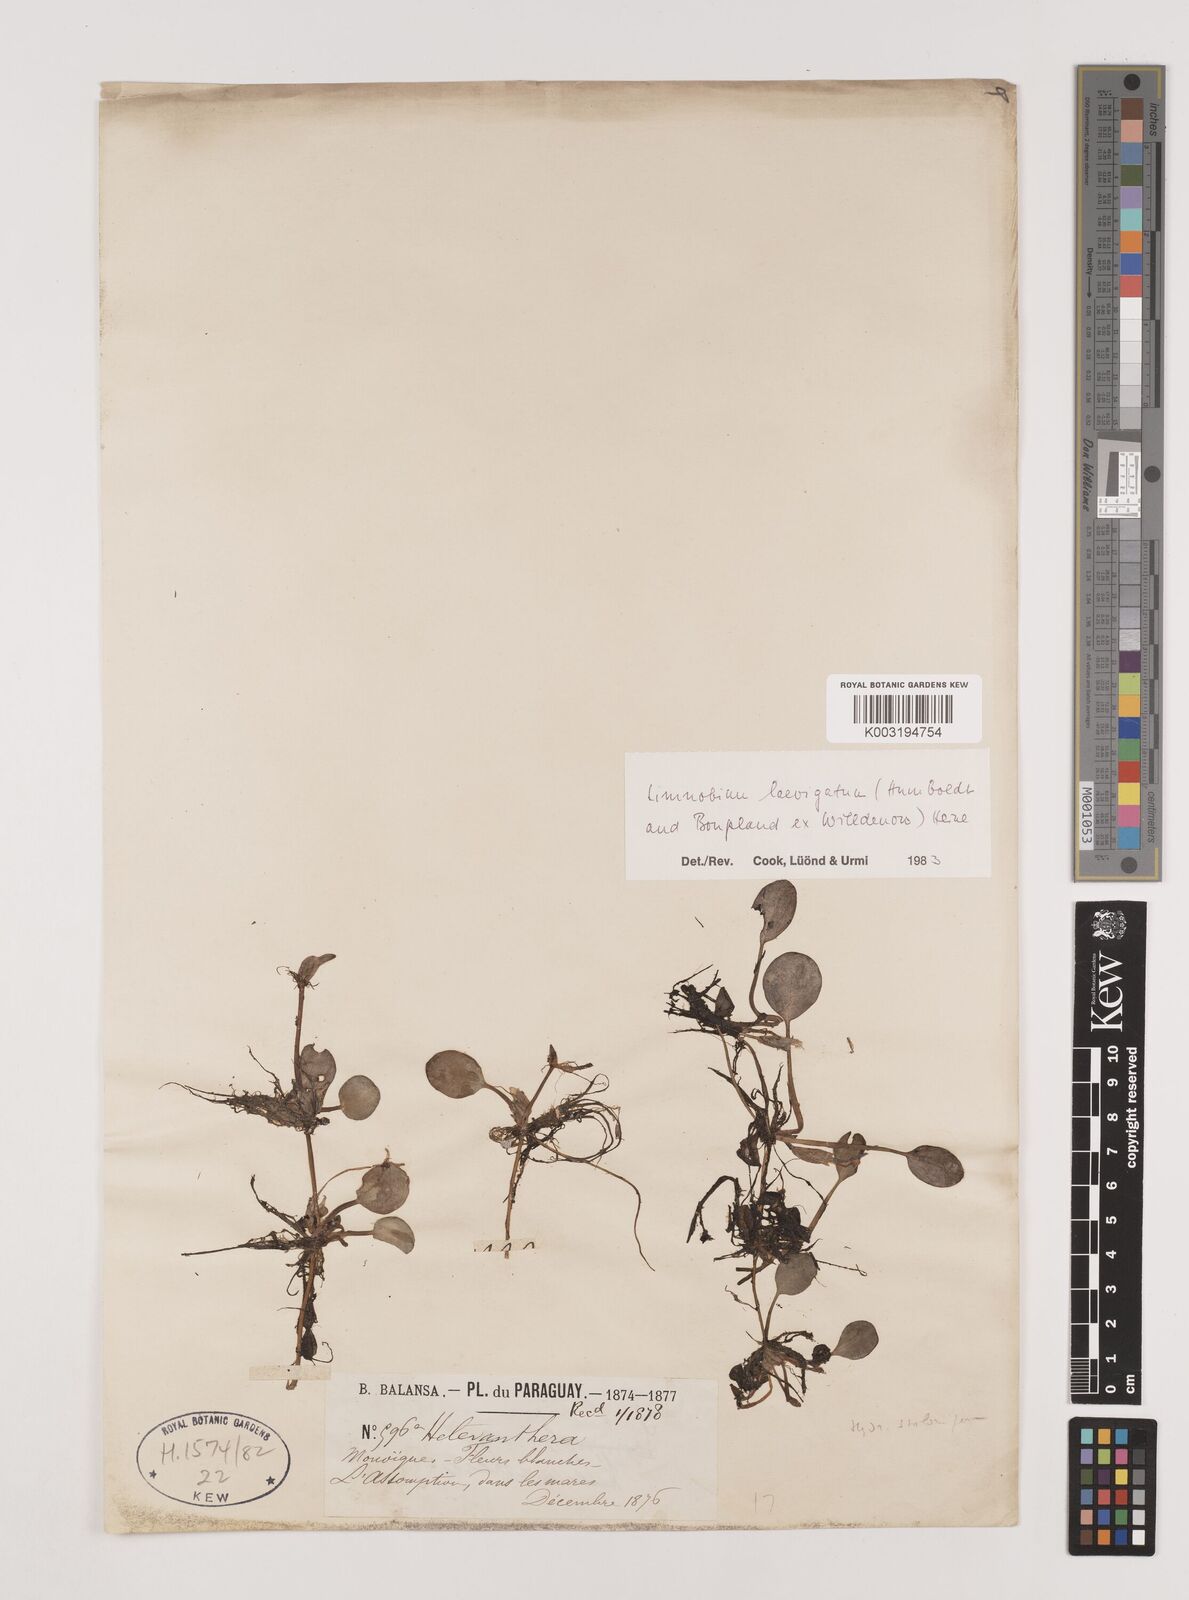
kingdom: Plantae
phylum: Tracheophyta
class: Liliopsida
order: Alismatales
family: Hydrocharitaceae
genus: Hydrocharis
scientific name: Hydrocharis laevigata
